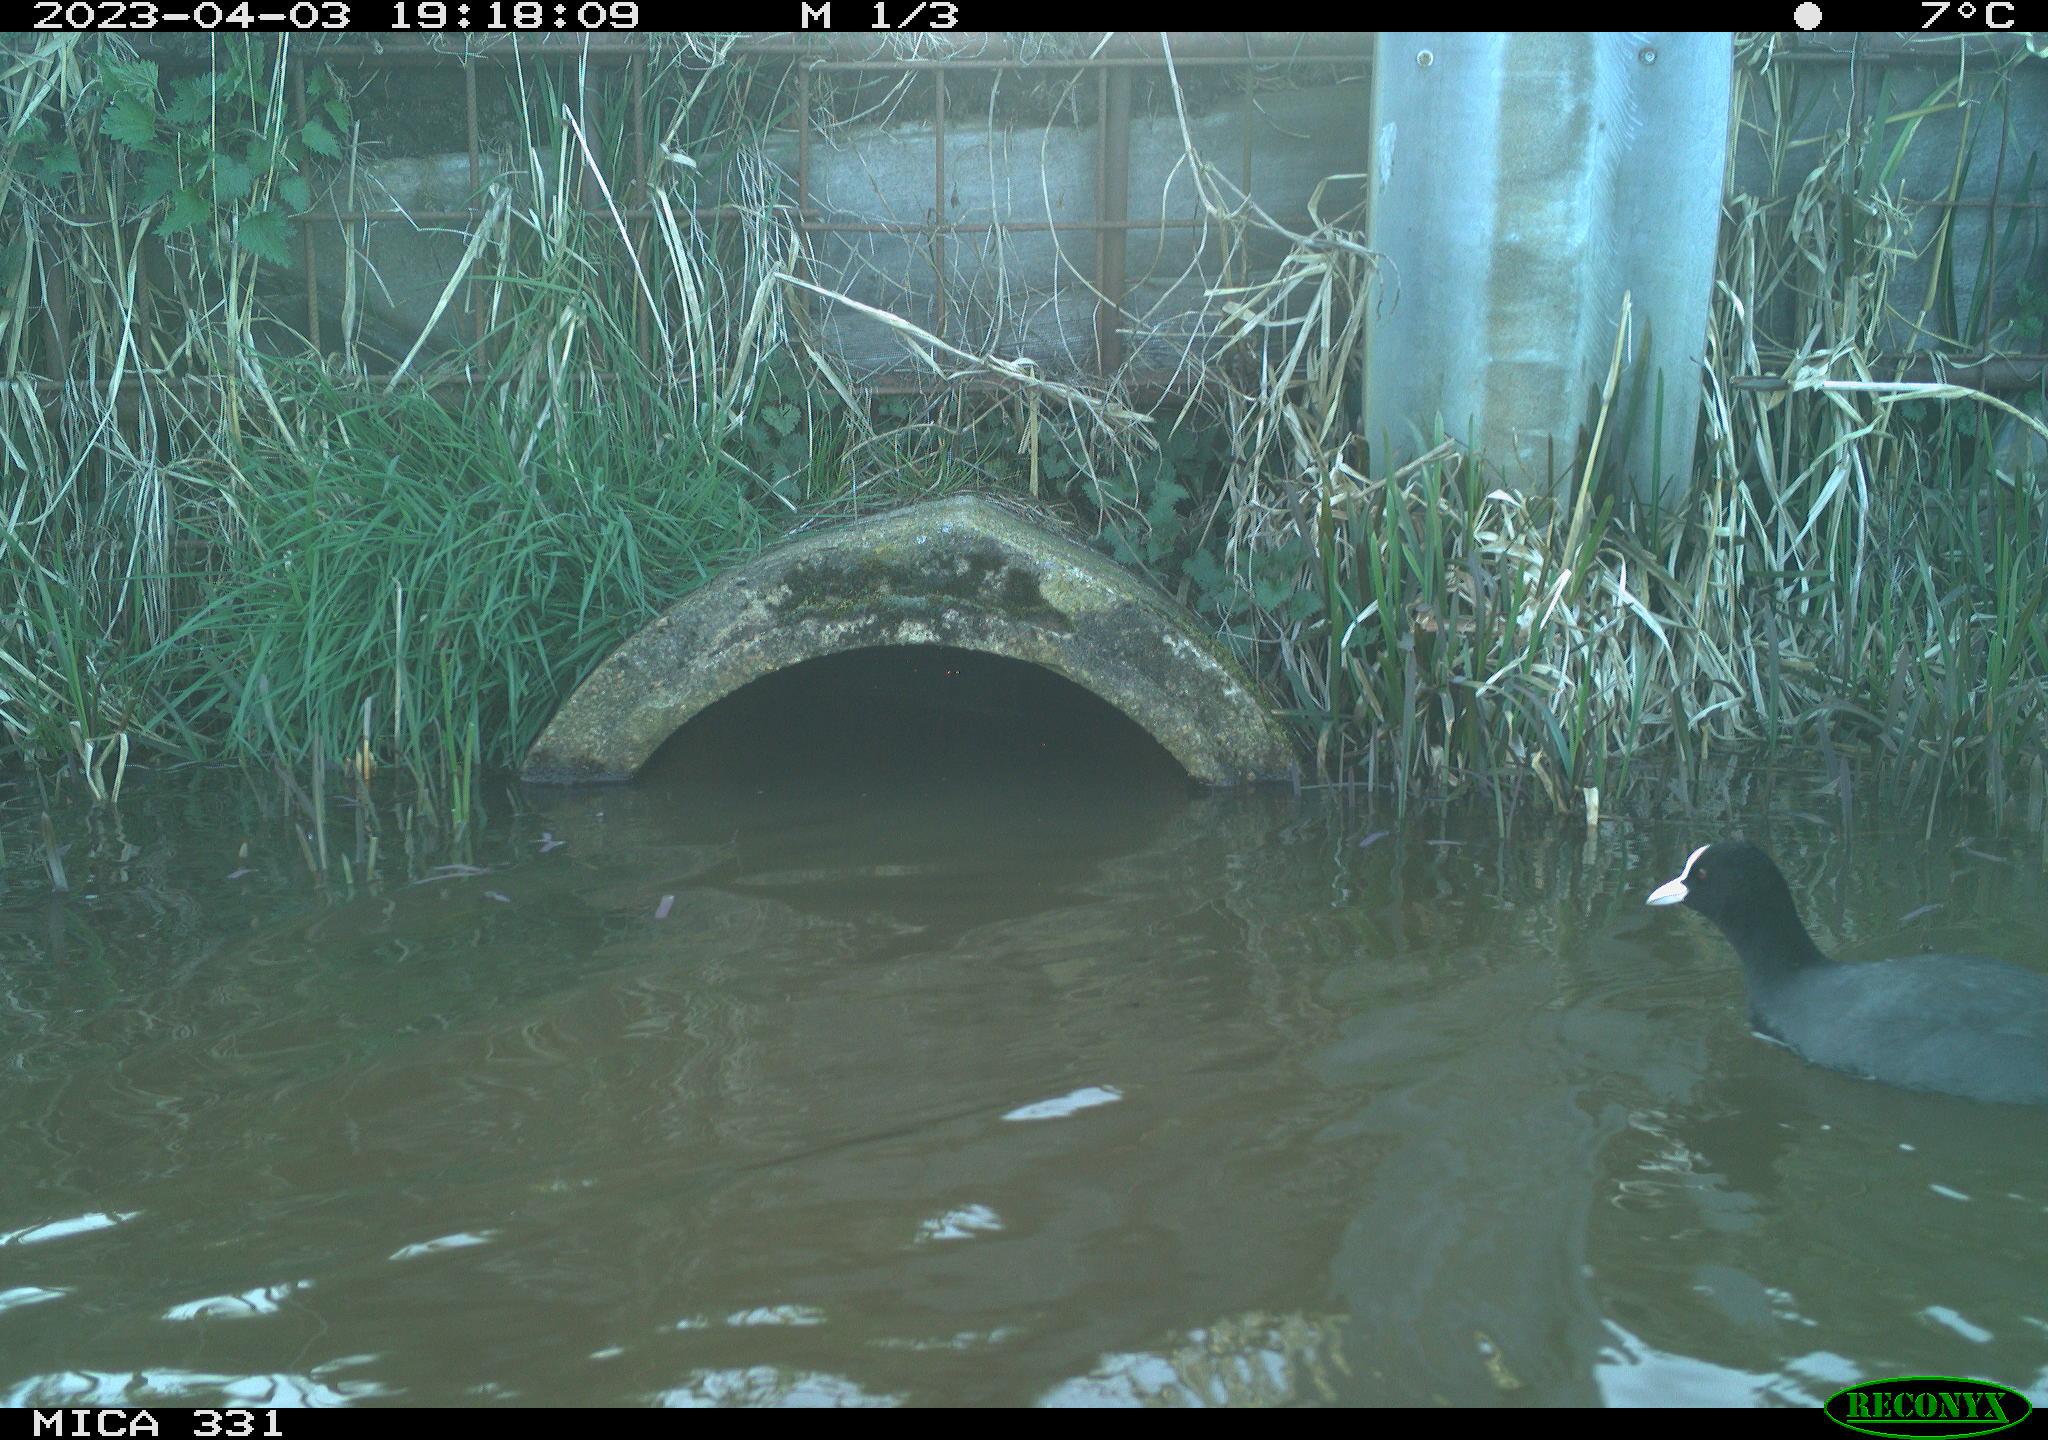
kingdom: Animalia
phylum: Chordata
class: Aves
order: Gruiformes
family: Rallidae
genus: Fulica
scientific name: Fulica atra
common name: Eurasian coot
